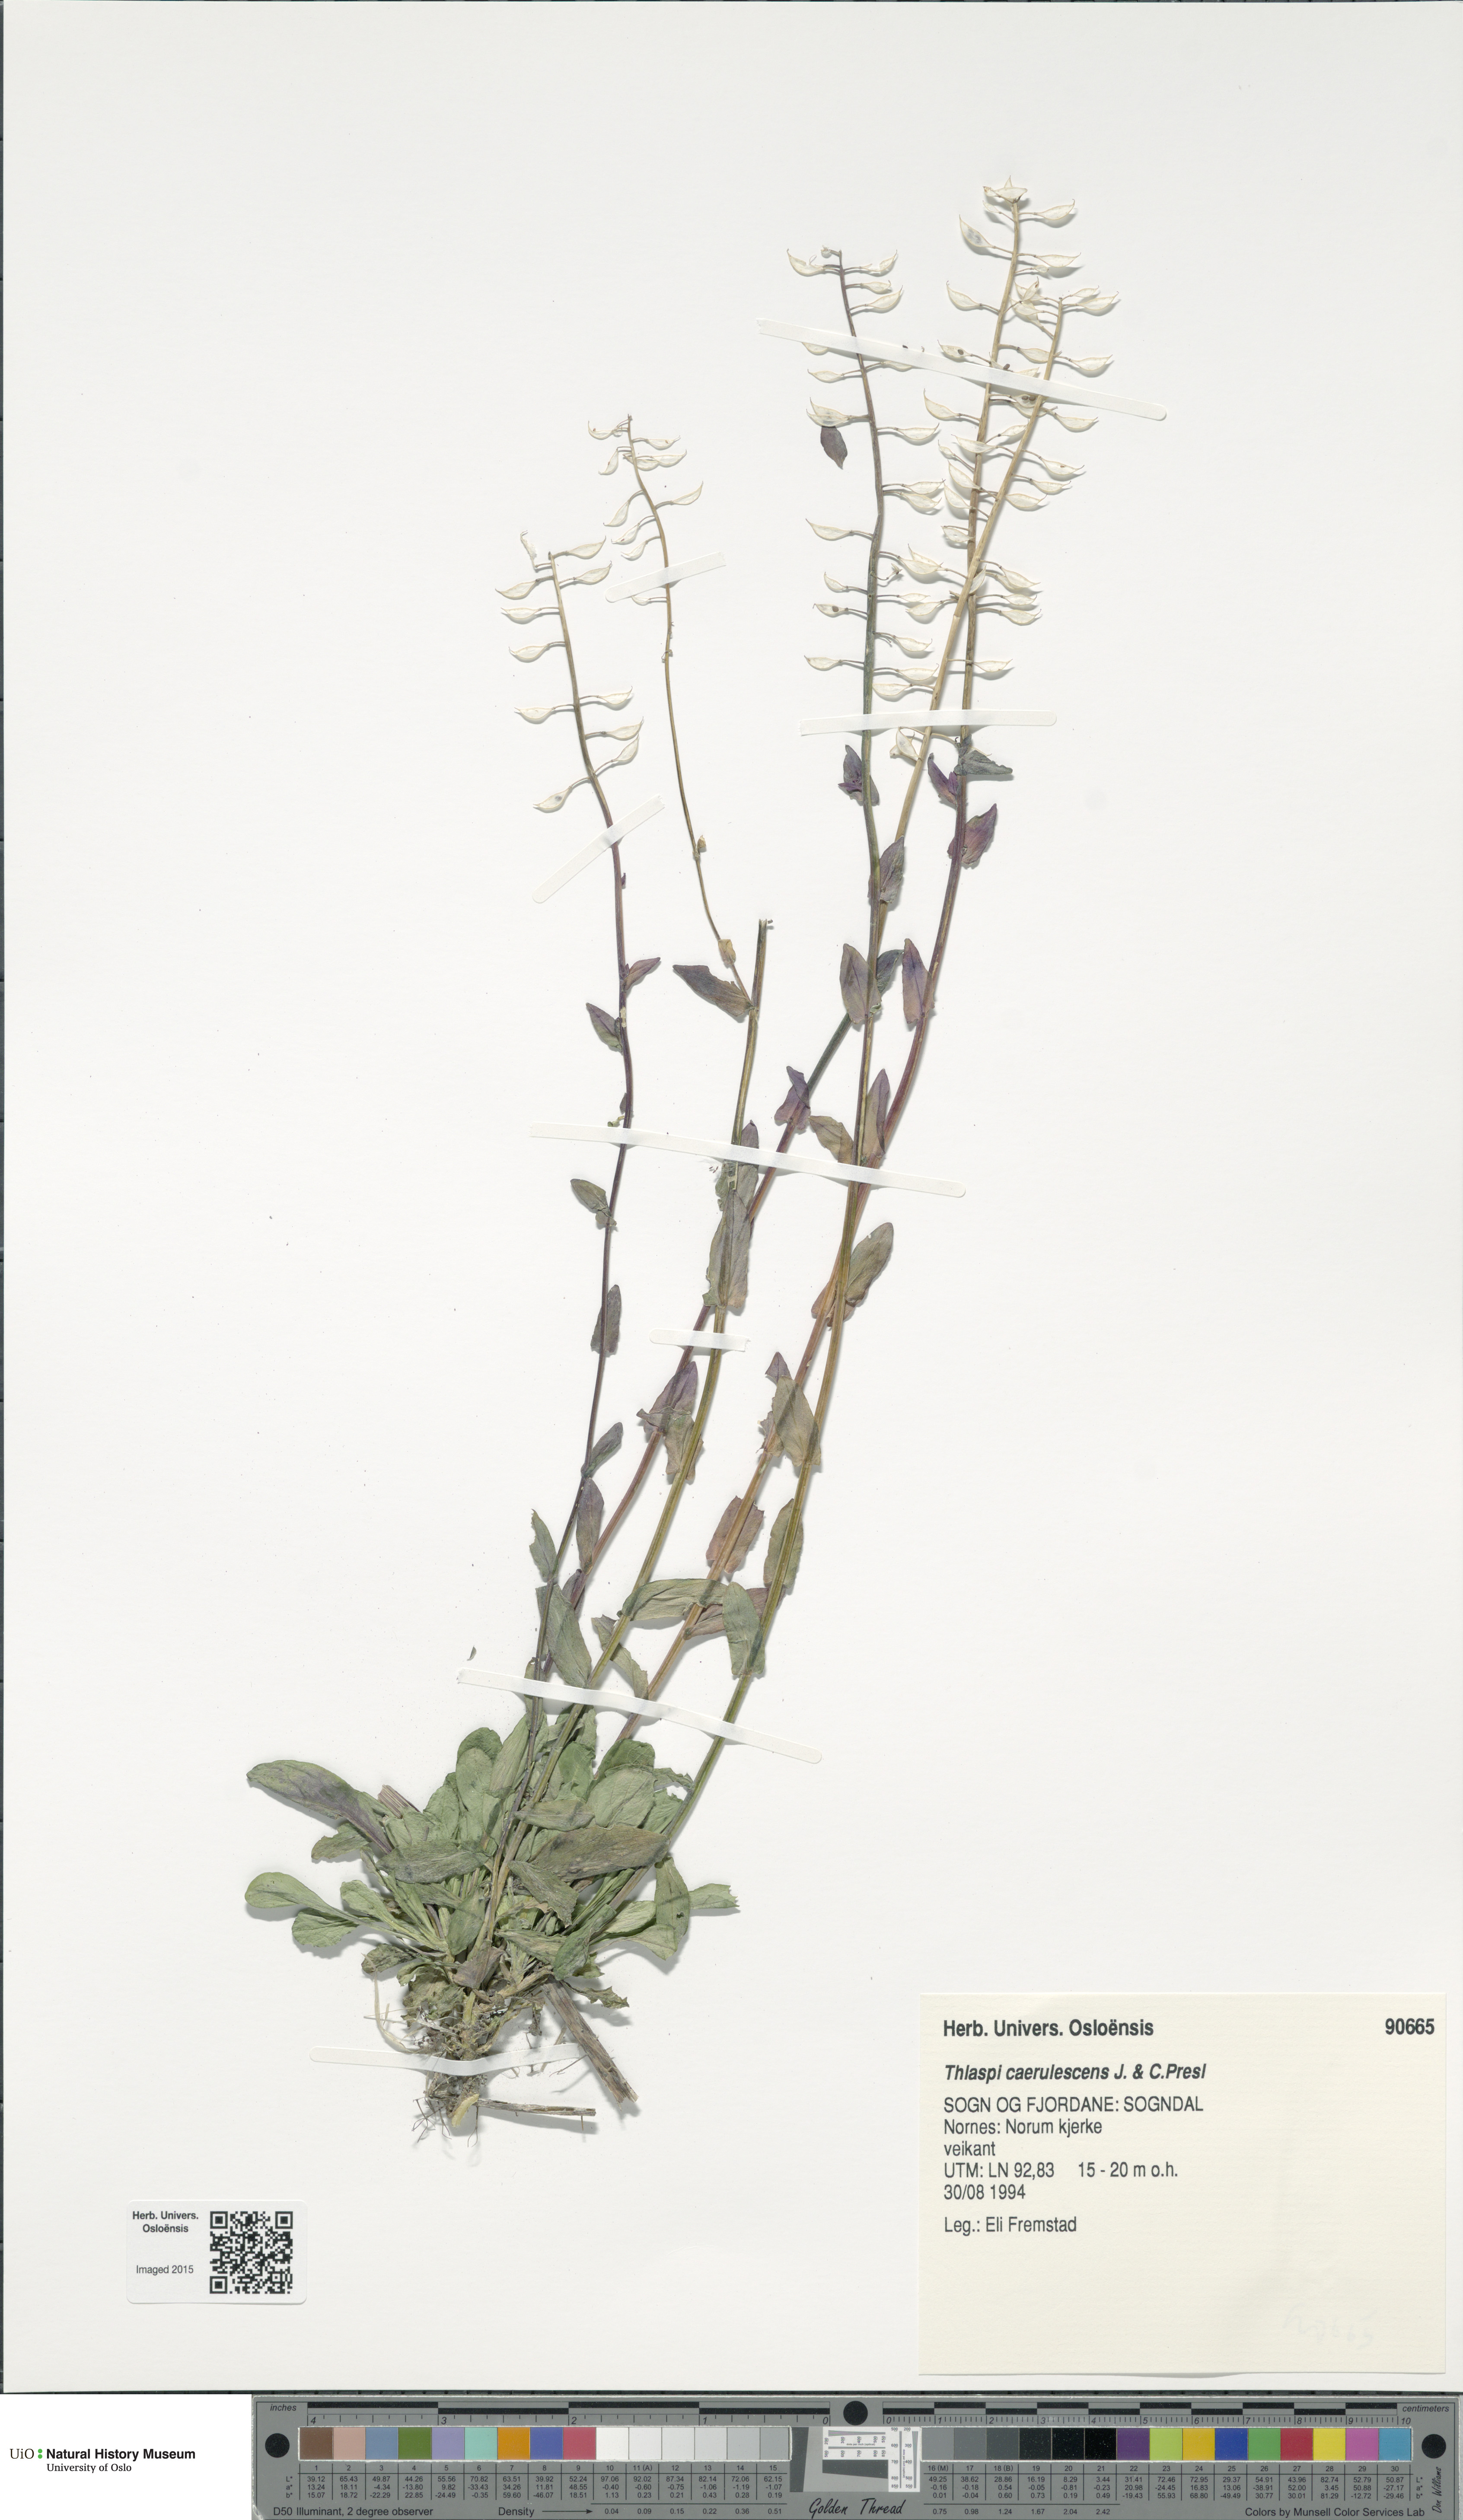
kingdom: Plantae
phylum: Tracheophyta
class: Magnoliopsida
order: Brassicales
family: Brassicaceae
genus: Noccaea
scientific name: Noccaea caerulescens
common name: Alpine pennycress
